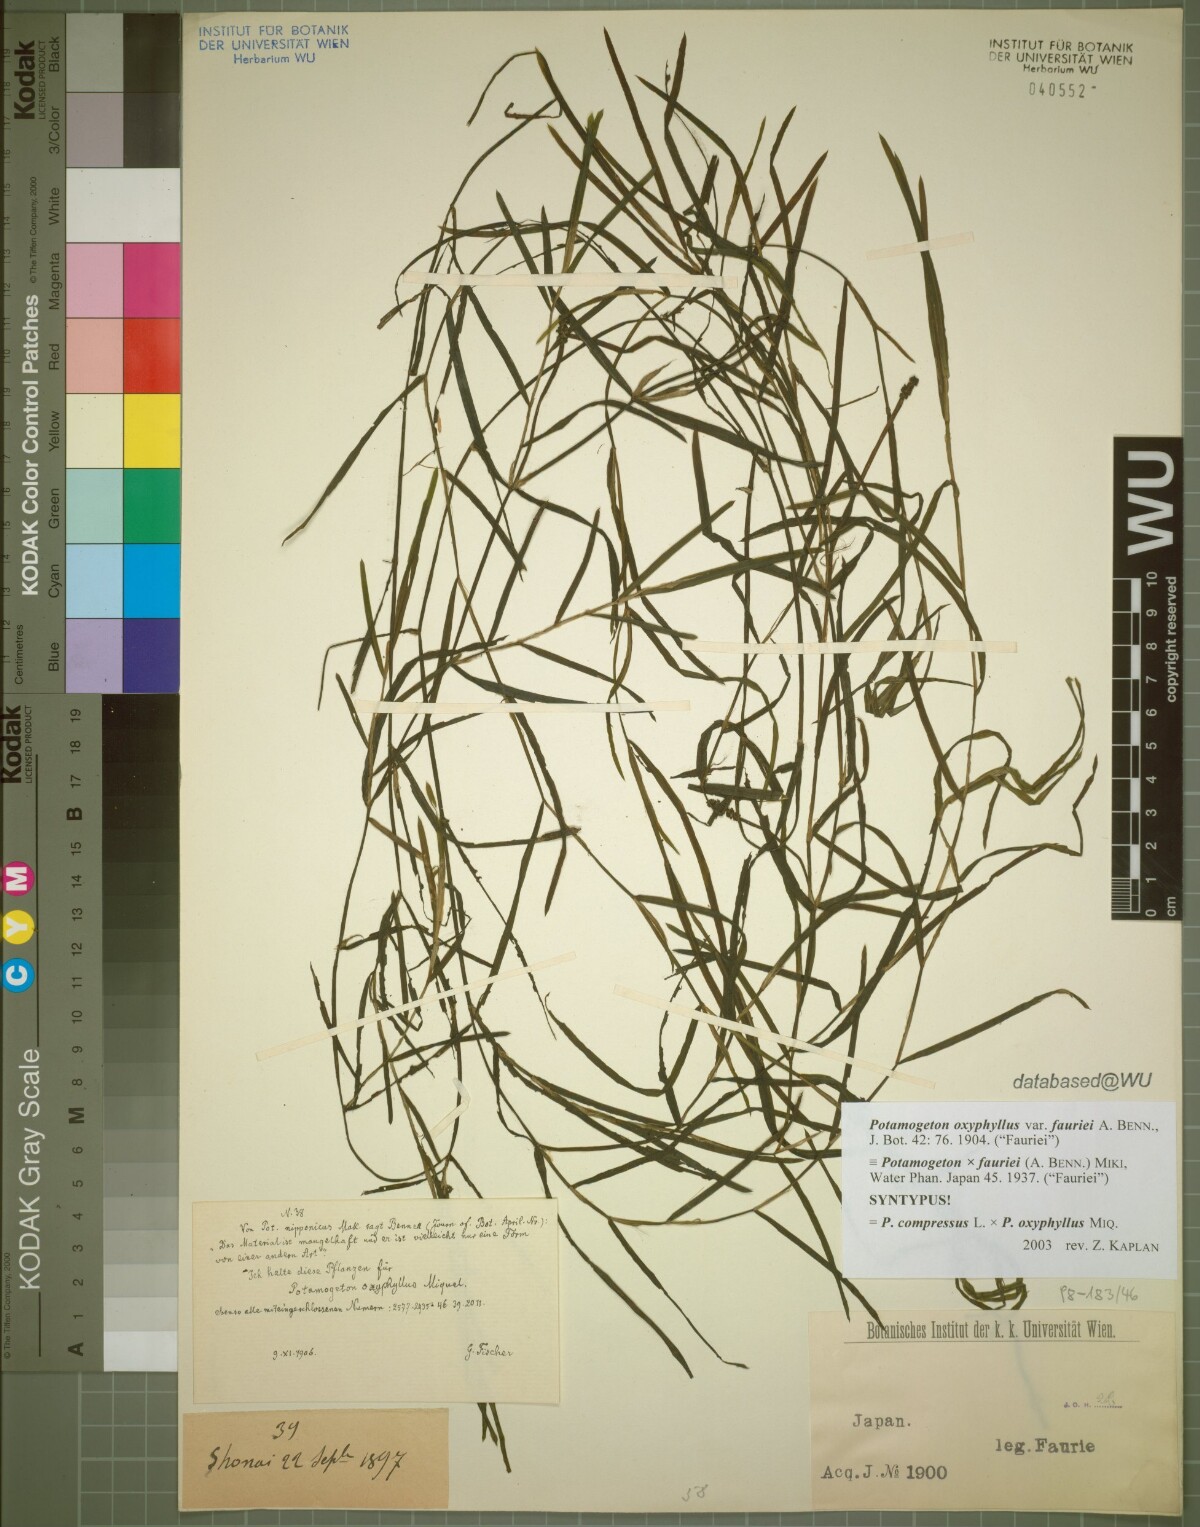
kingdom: Plantae
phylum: Tracheophyta
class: Liliopsida
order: Alismatales
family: Potamogetonaceae
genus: Potamogeton
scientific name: Potamogeton fauriei
